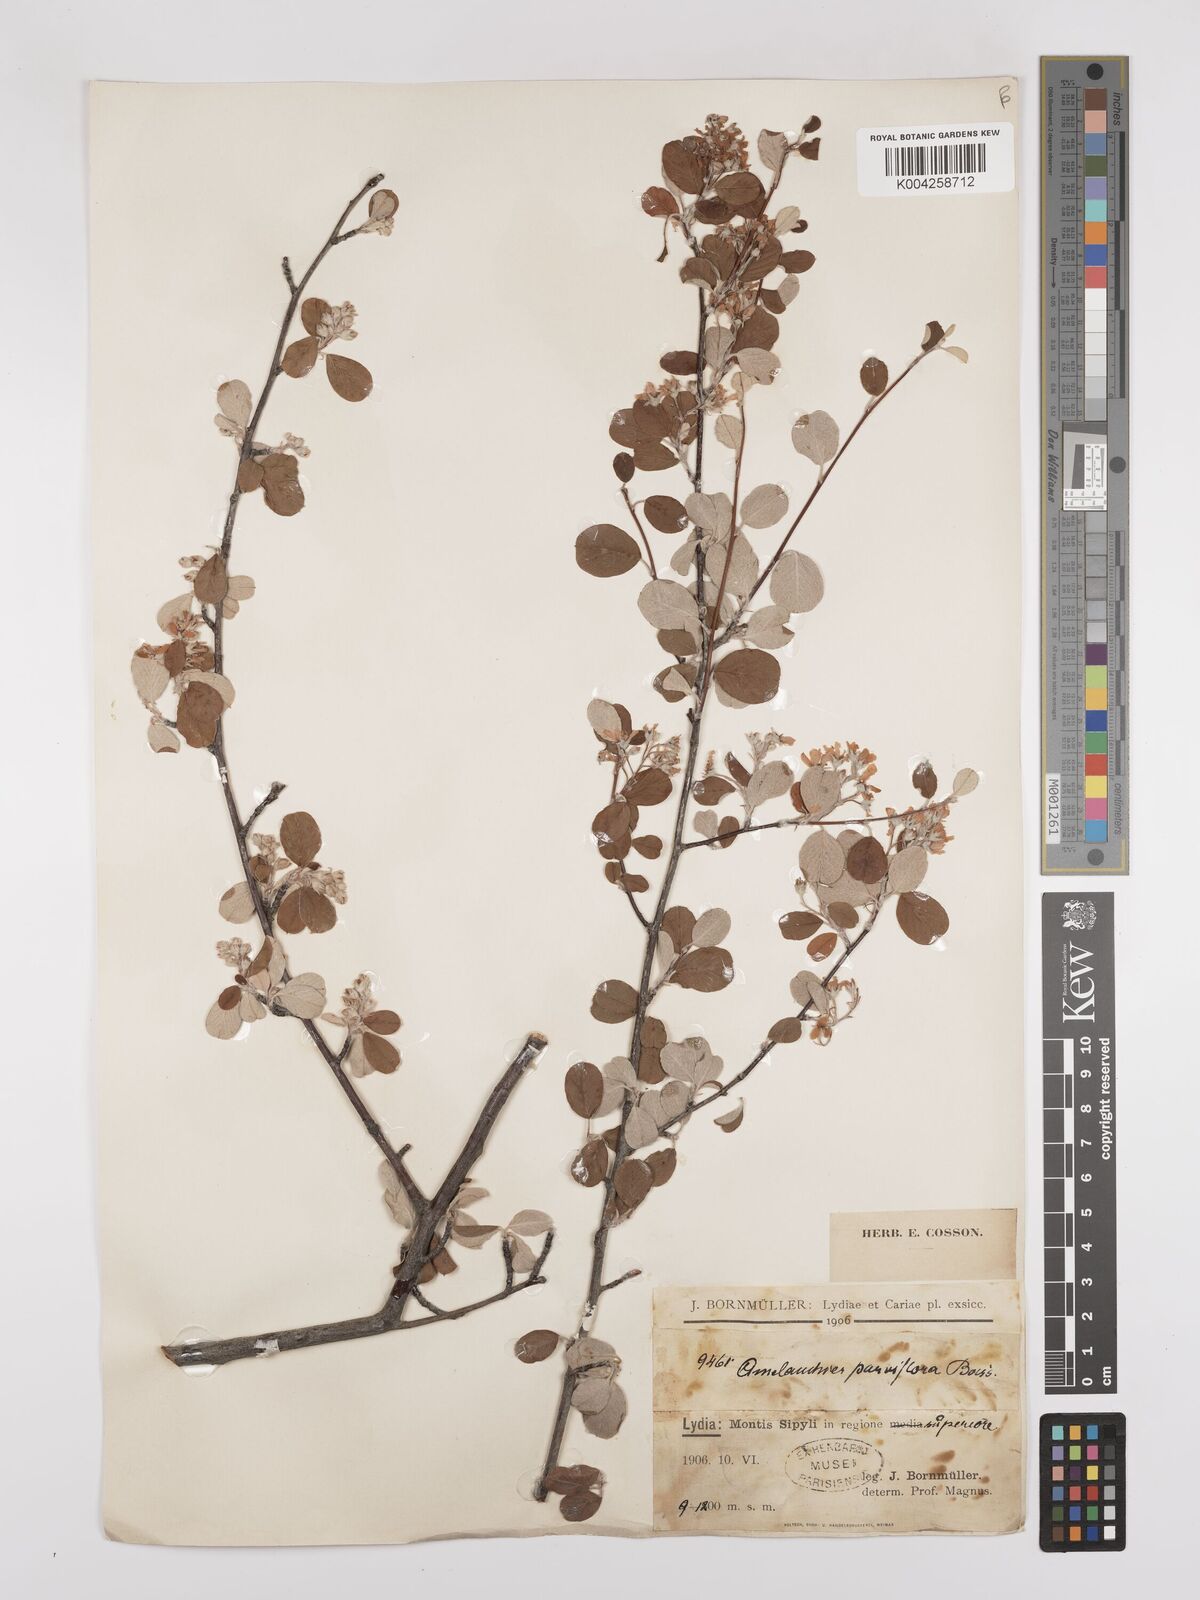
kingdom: Plantae
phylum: Tracheophyta
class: Magnoliopsida
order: Rosales
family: Rosaceae
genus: Amelanchier
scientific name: Amelanchier parviflora
